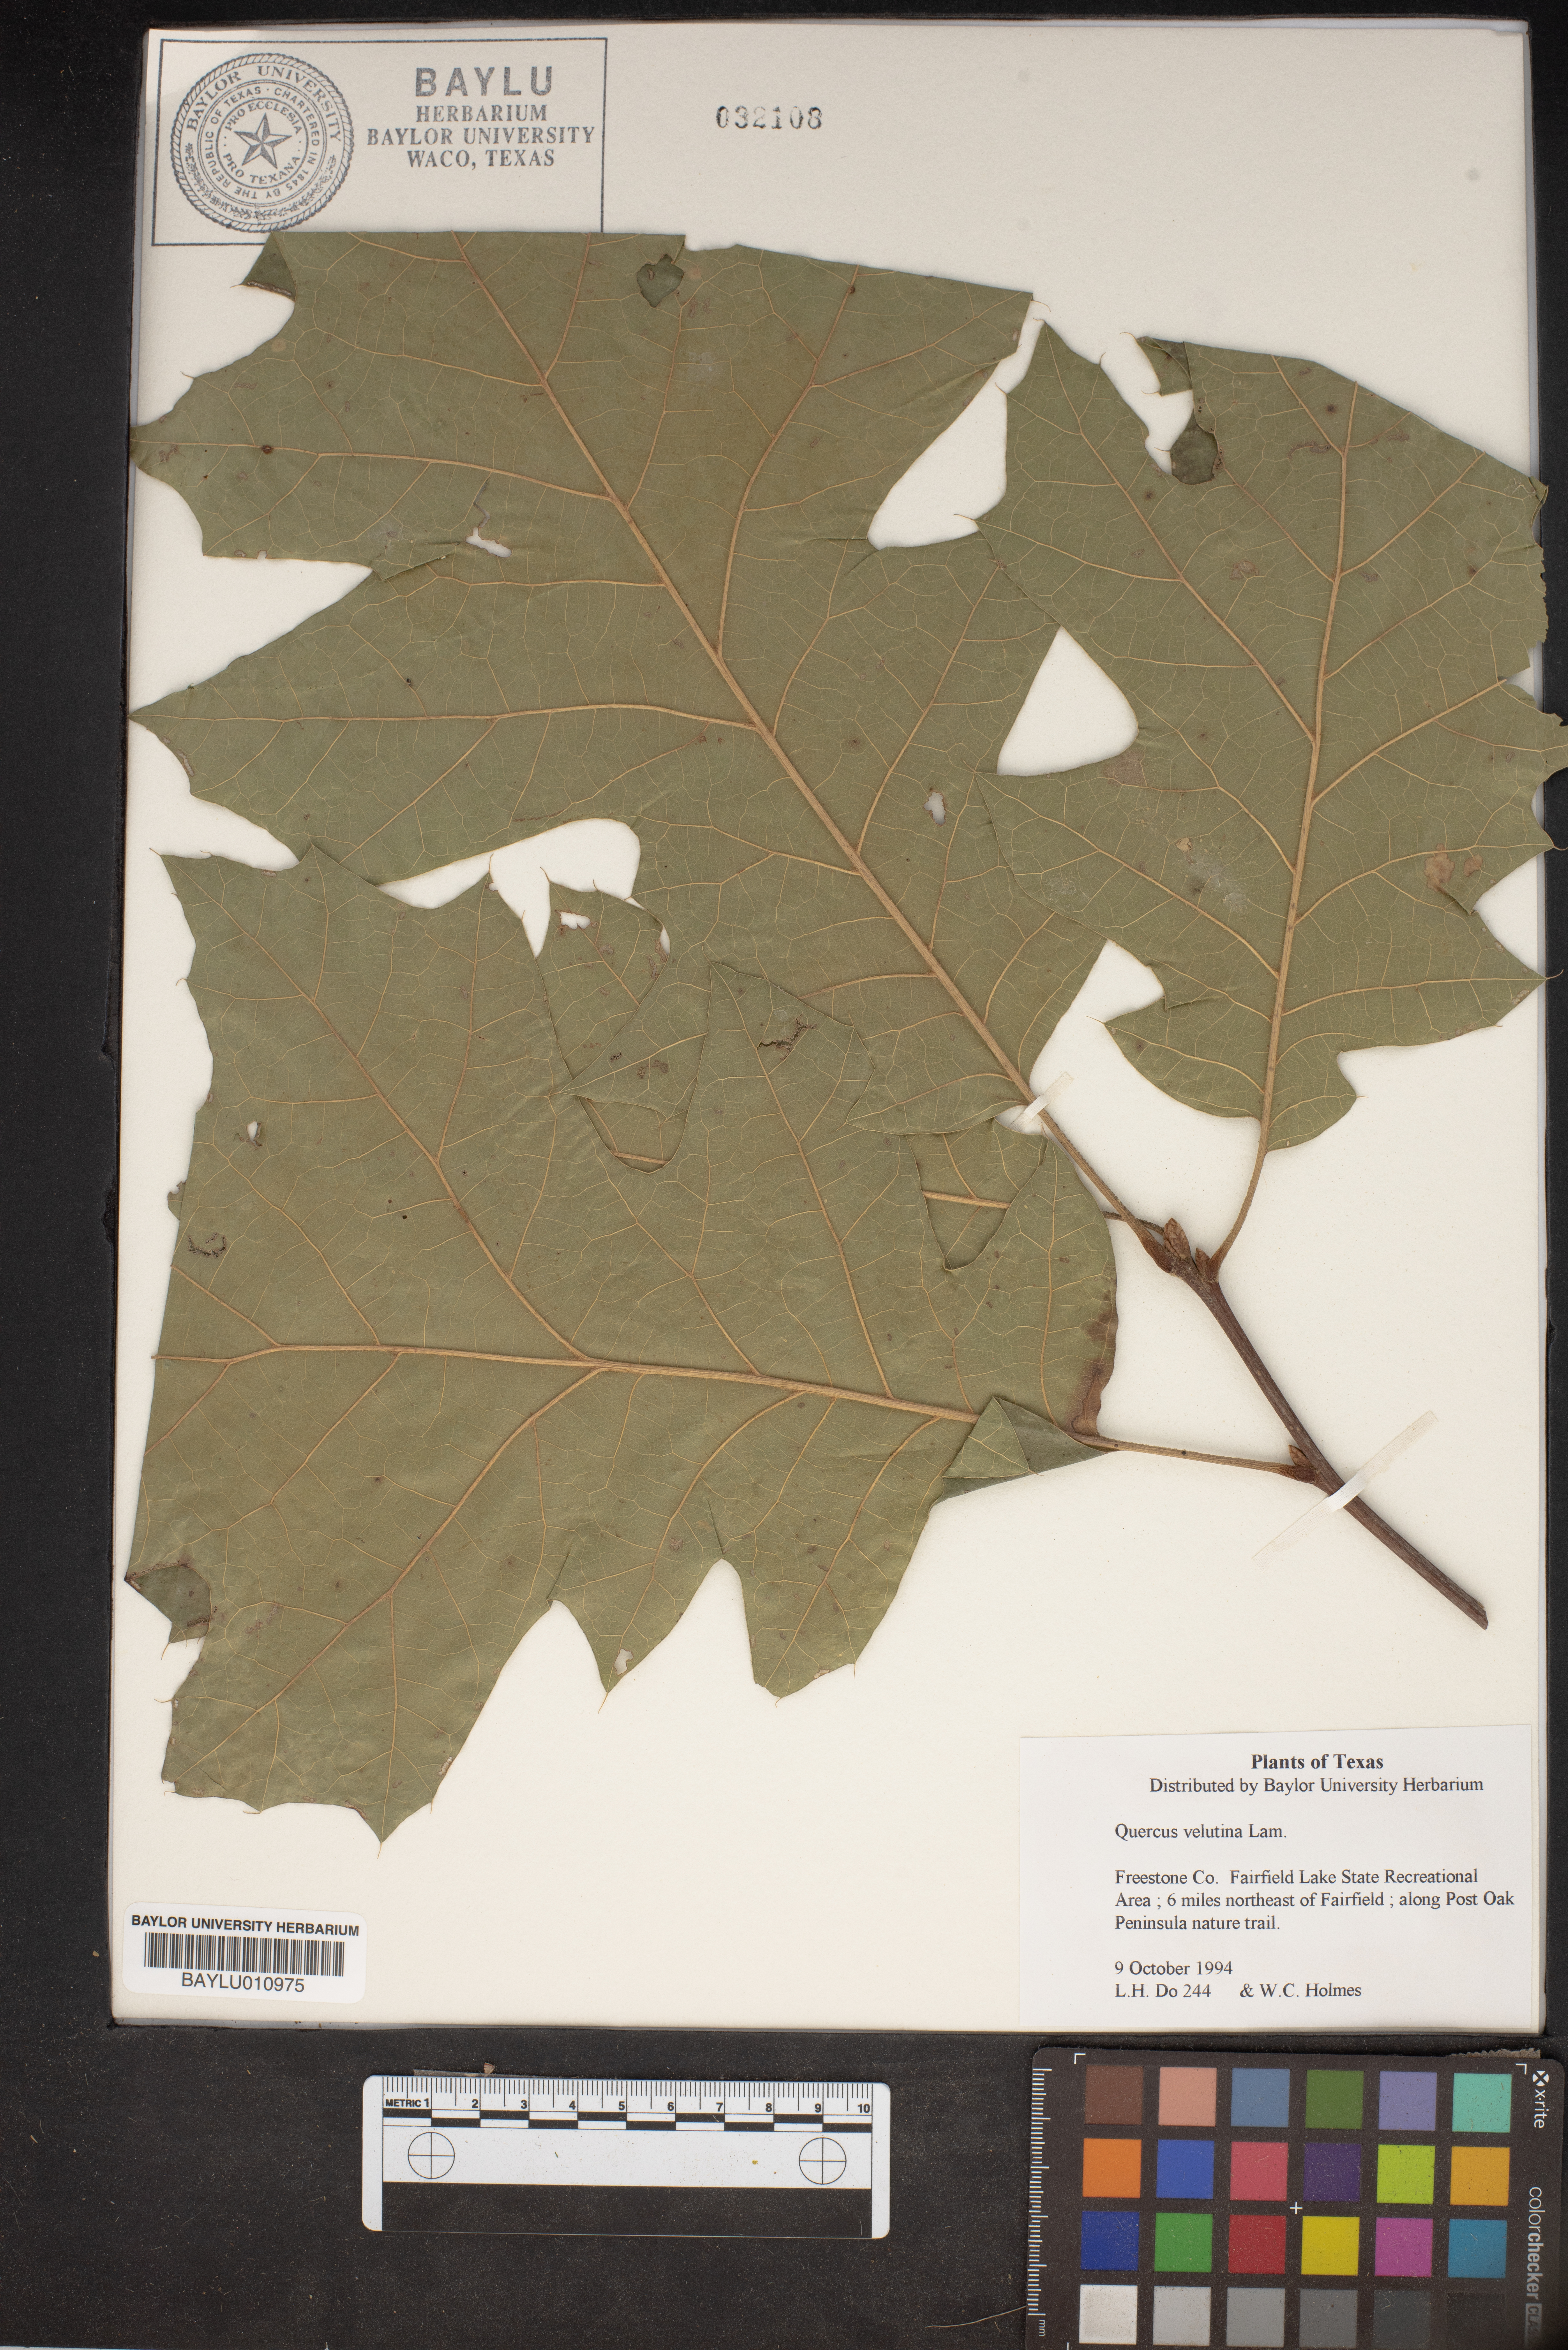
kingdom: Plantae
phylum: Tracheophyta
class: Magnoliopsida
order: Fagales
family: Fagaceae
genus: Quercus
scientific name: Quercus velutina
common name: Black oak
